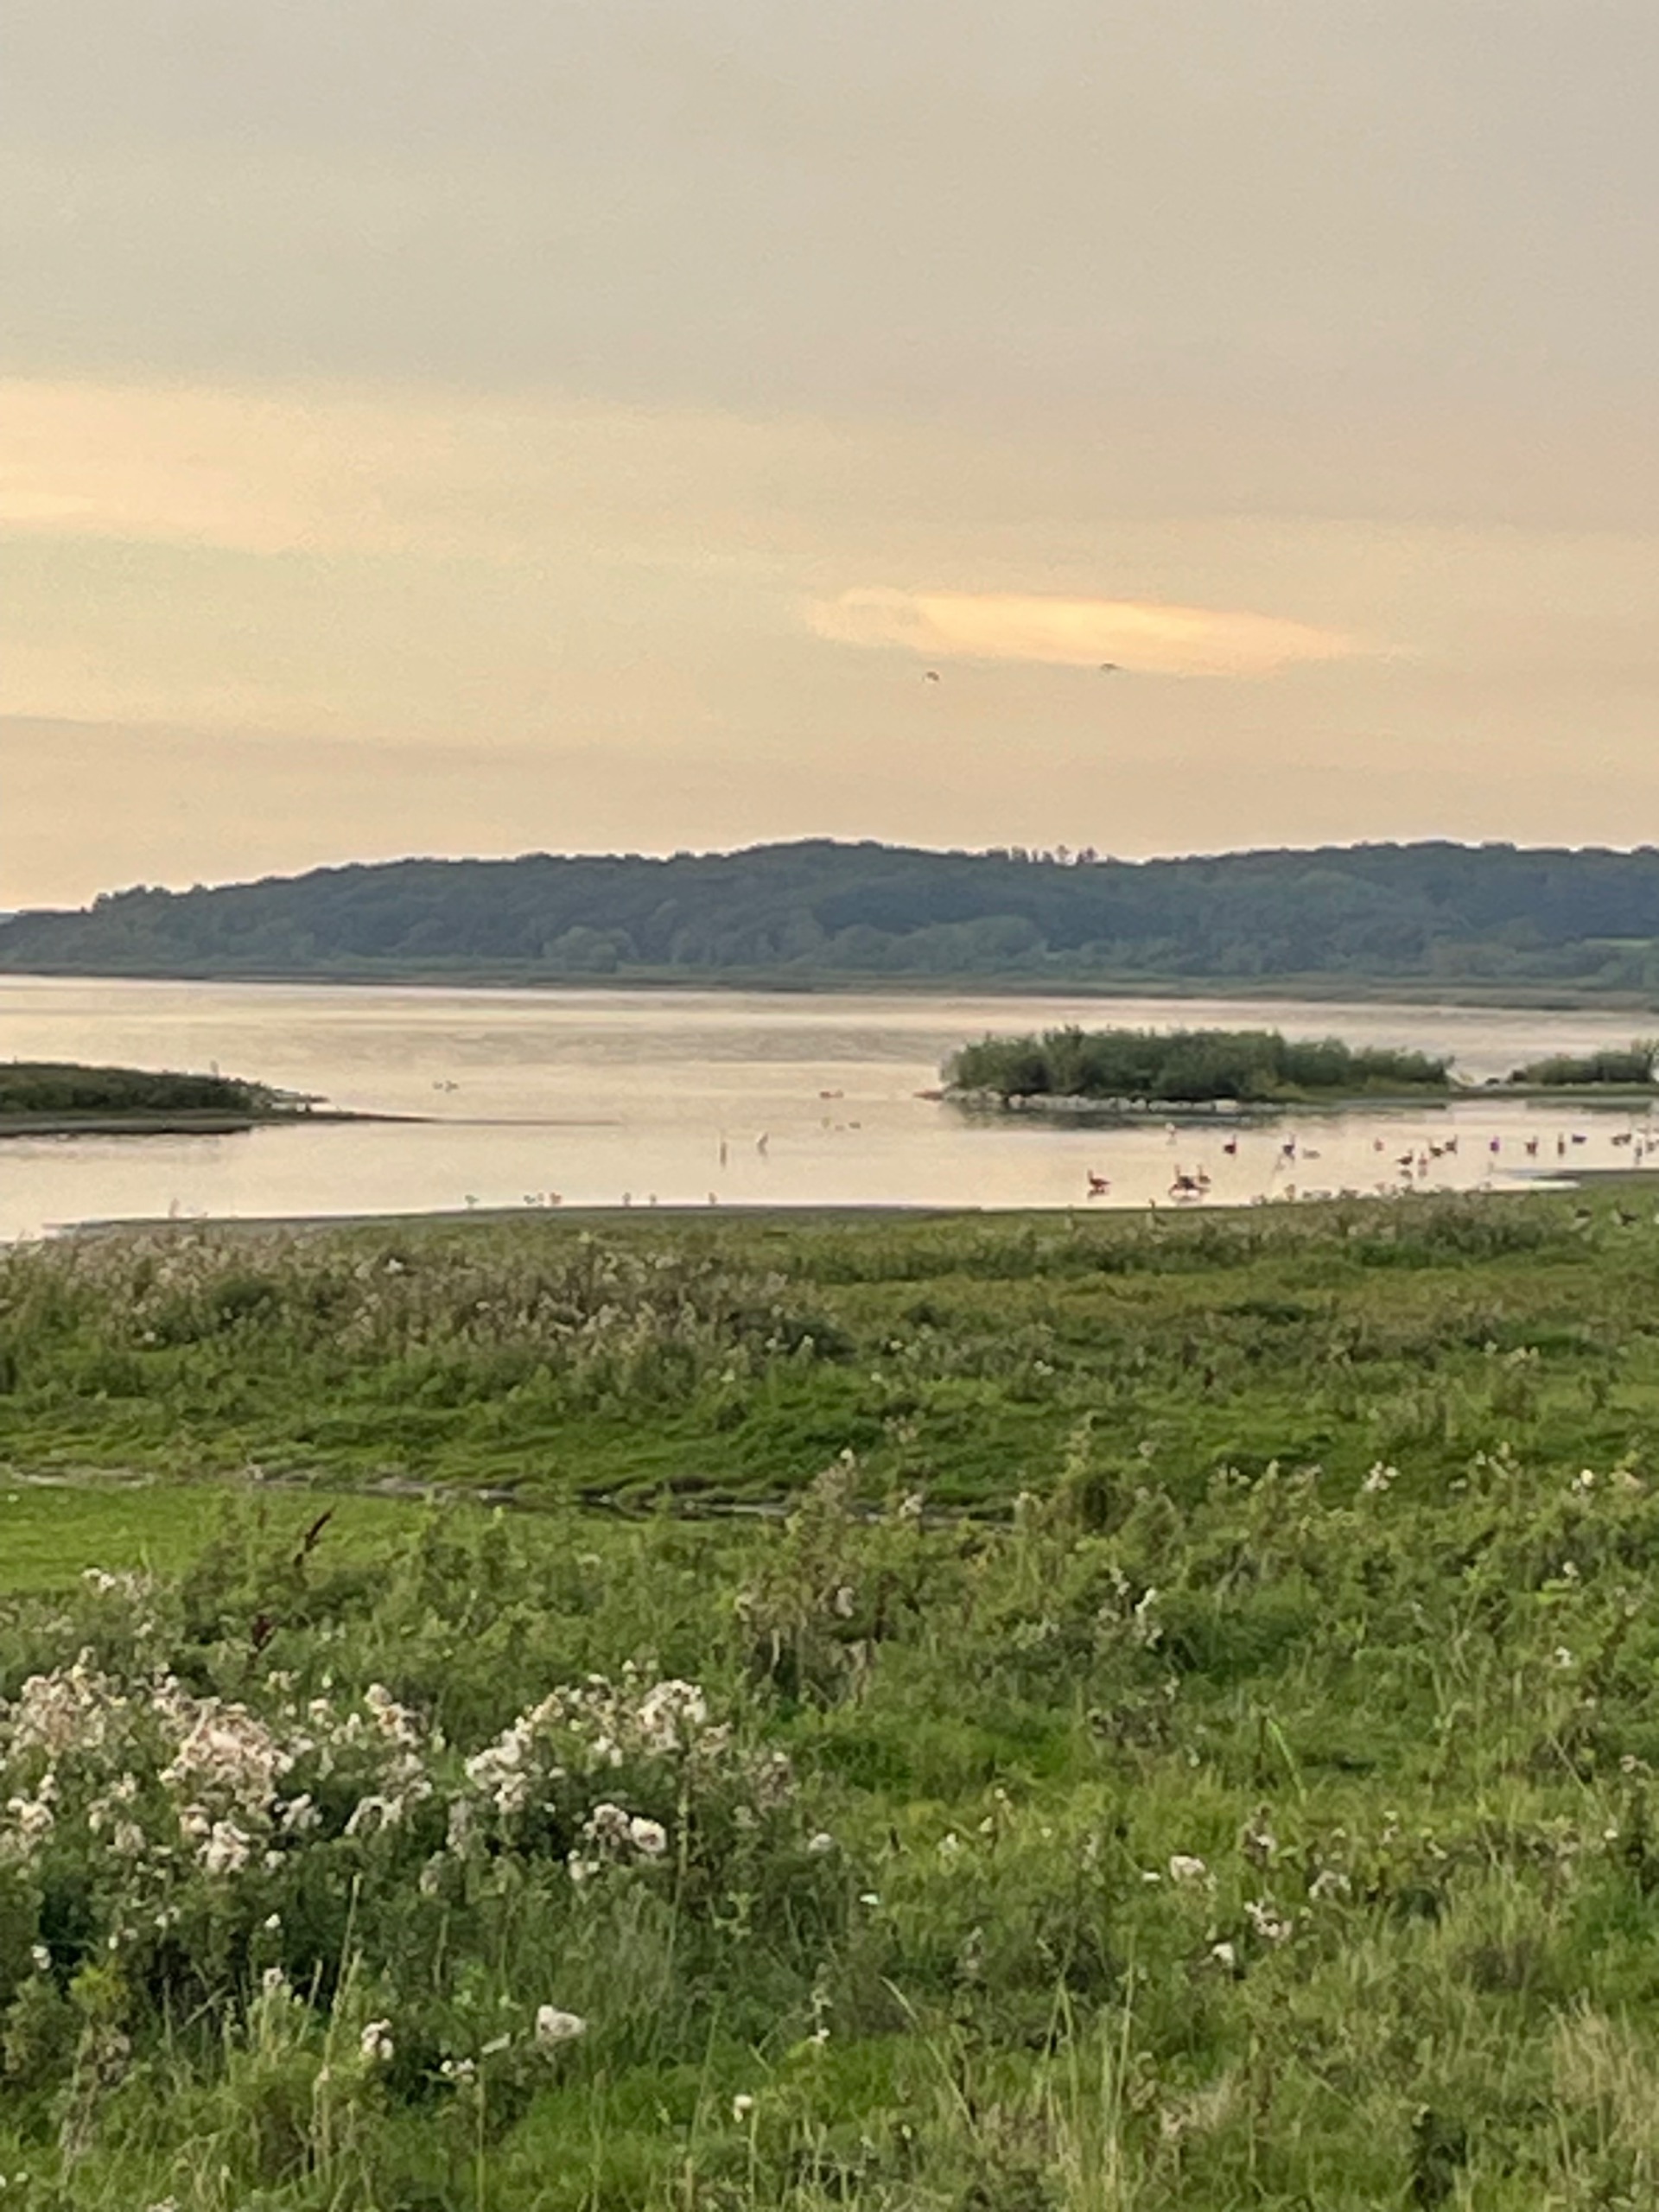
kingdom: Animalia
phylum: Chordata
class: Aves
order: Pelecaniformes
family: Ardeidae
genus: Ardea
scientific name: Ardea alba
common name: Sølvhejre
